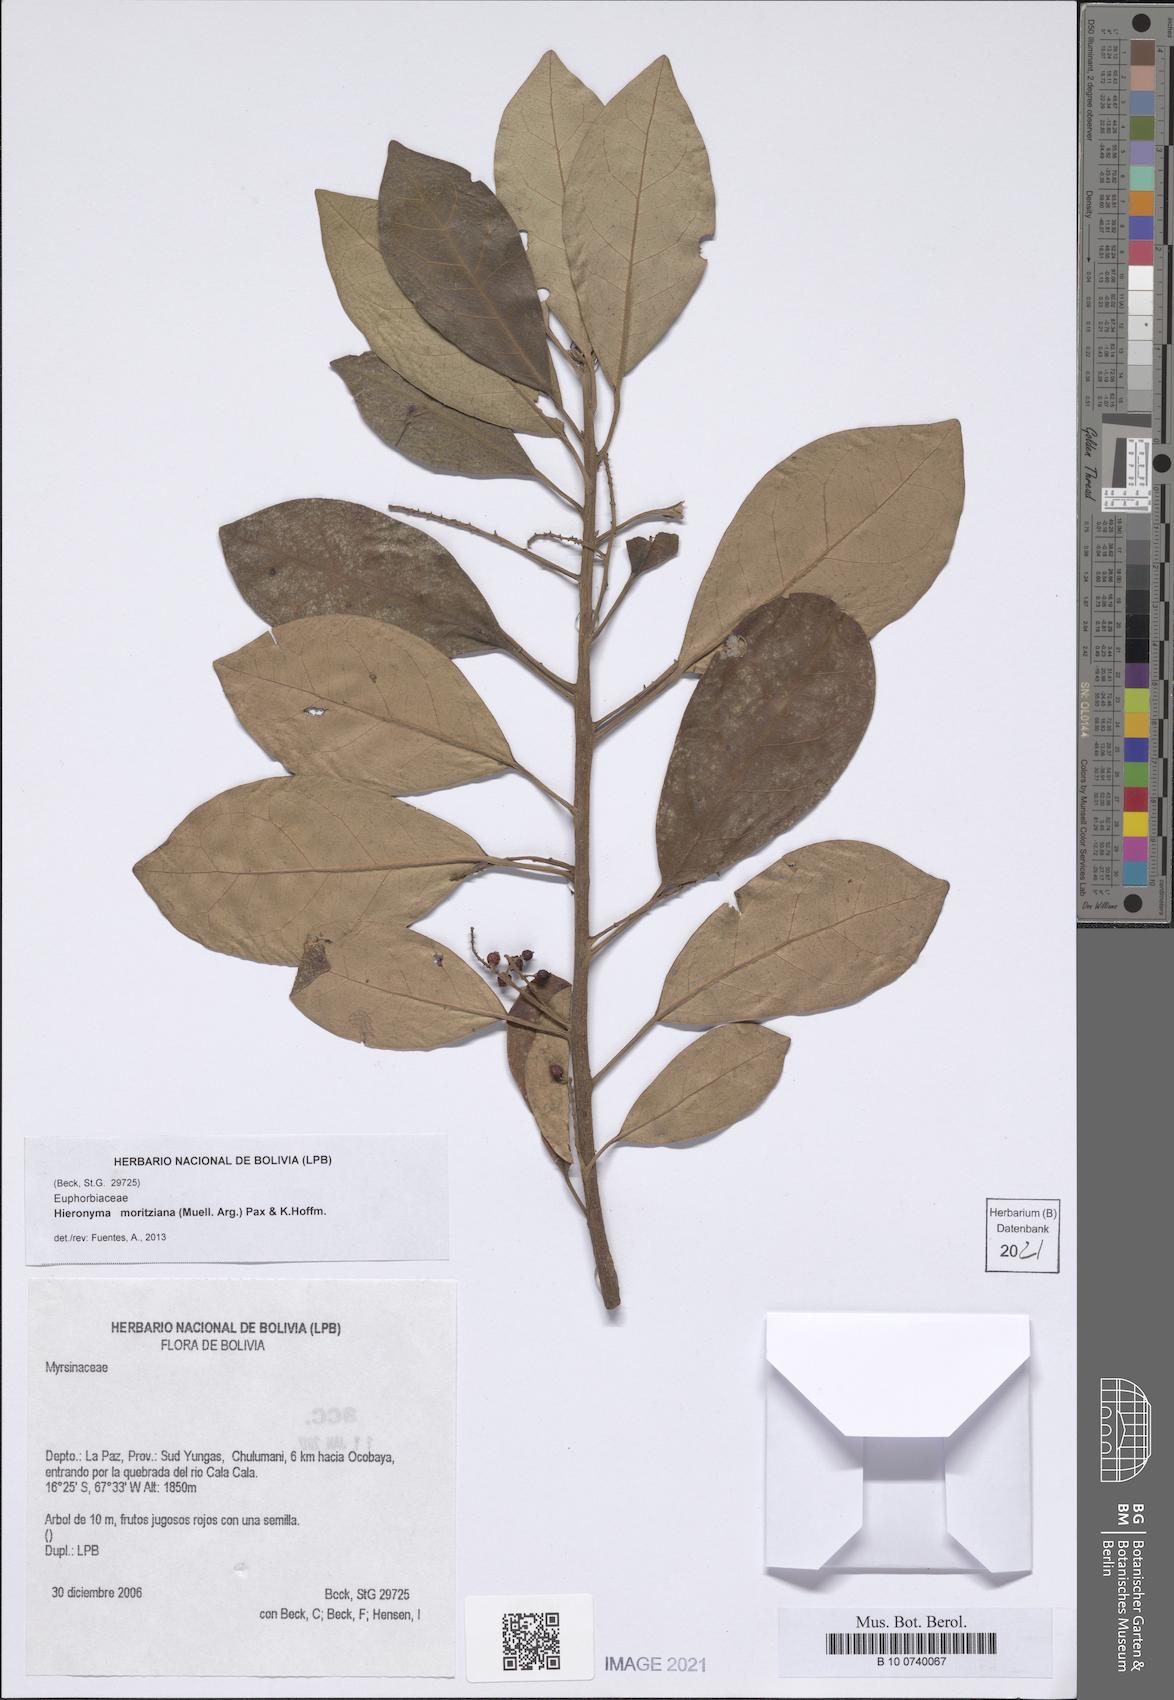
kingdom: Plantae
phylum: Tracheophyta
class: Magnoliopsida
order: Malpighiales
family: Phyllanthaceae
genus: Hieronyma
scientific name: Hieronyma fendleri
